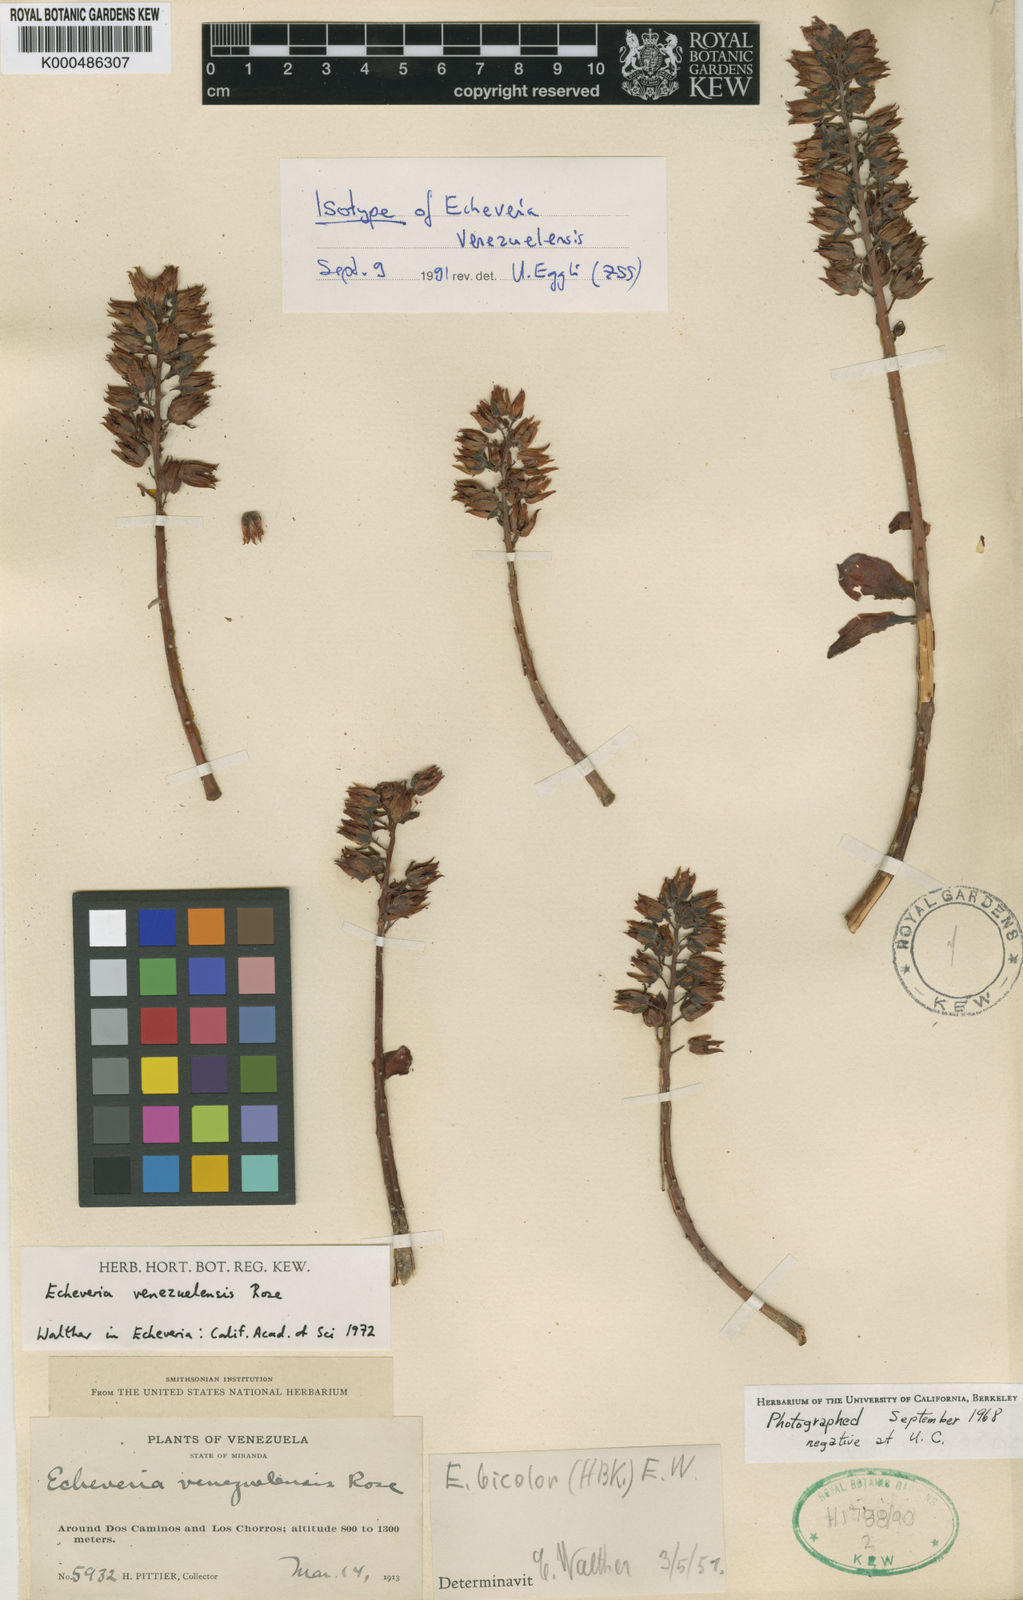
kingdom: Plantae
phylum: Tracheophyta
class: Magnoliopsida
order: Saxifragales
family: Crassulaceae
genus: Echeveria
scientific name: Echeveria bicolor
